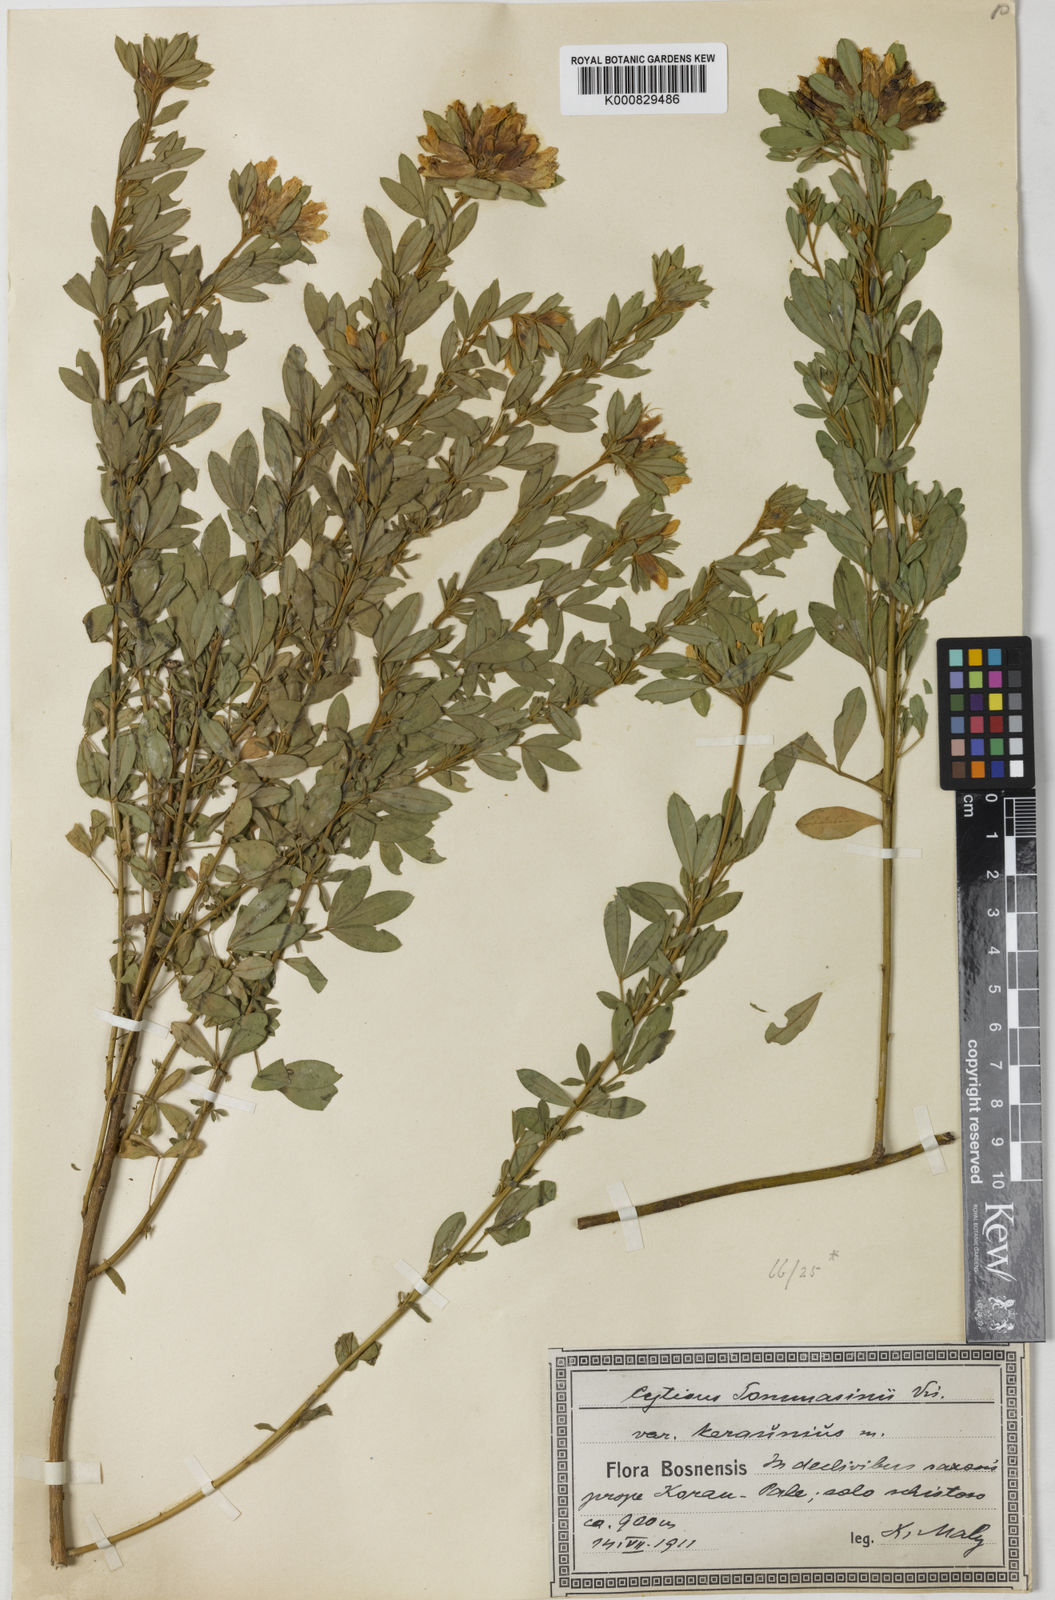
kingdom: Plantae
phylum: Tracheophyta
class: Magnoliopsida
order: Fabales
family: Fabaceae
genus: Chamaecytisus
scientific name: Chamaecytisus tommasinii
